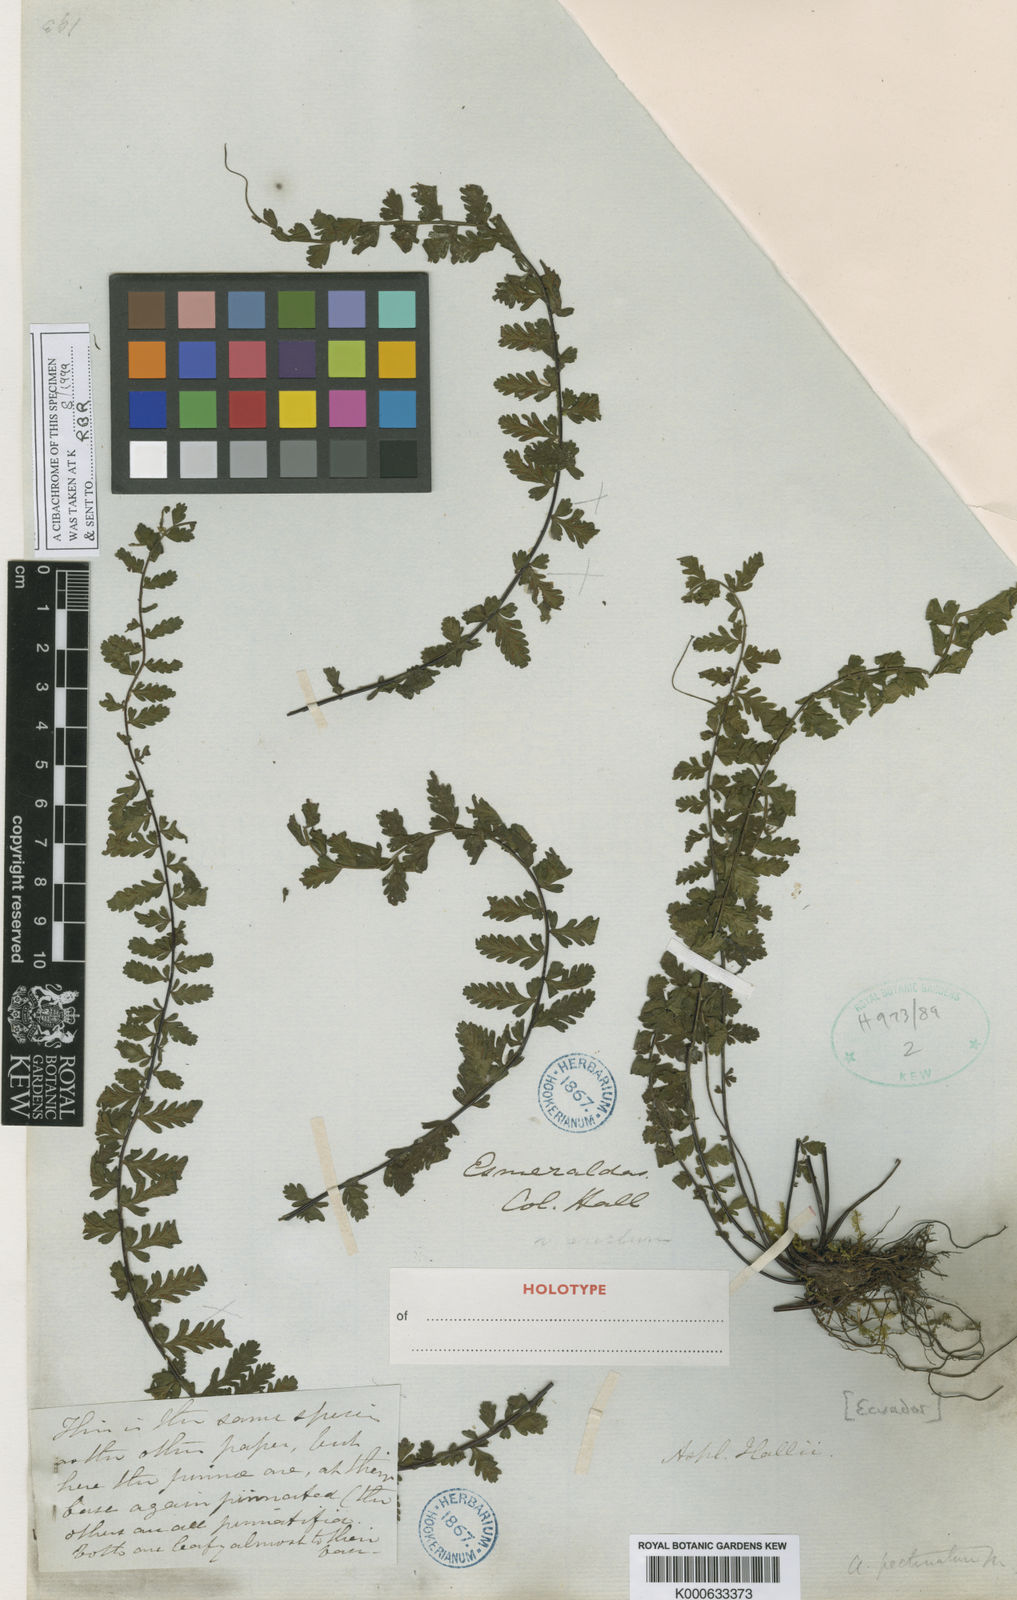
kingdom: Plantae
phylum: Tracheophyta
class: Polypodiopsida
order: Polypodiales
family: Aspleniaceae
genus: Asplenium
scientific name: Asplenium hallii
